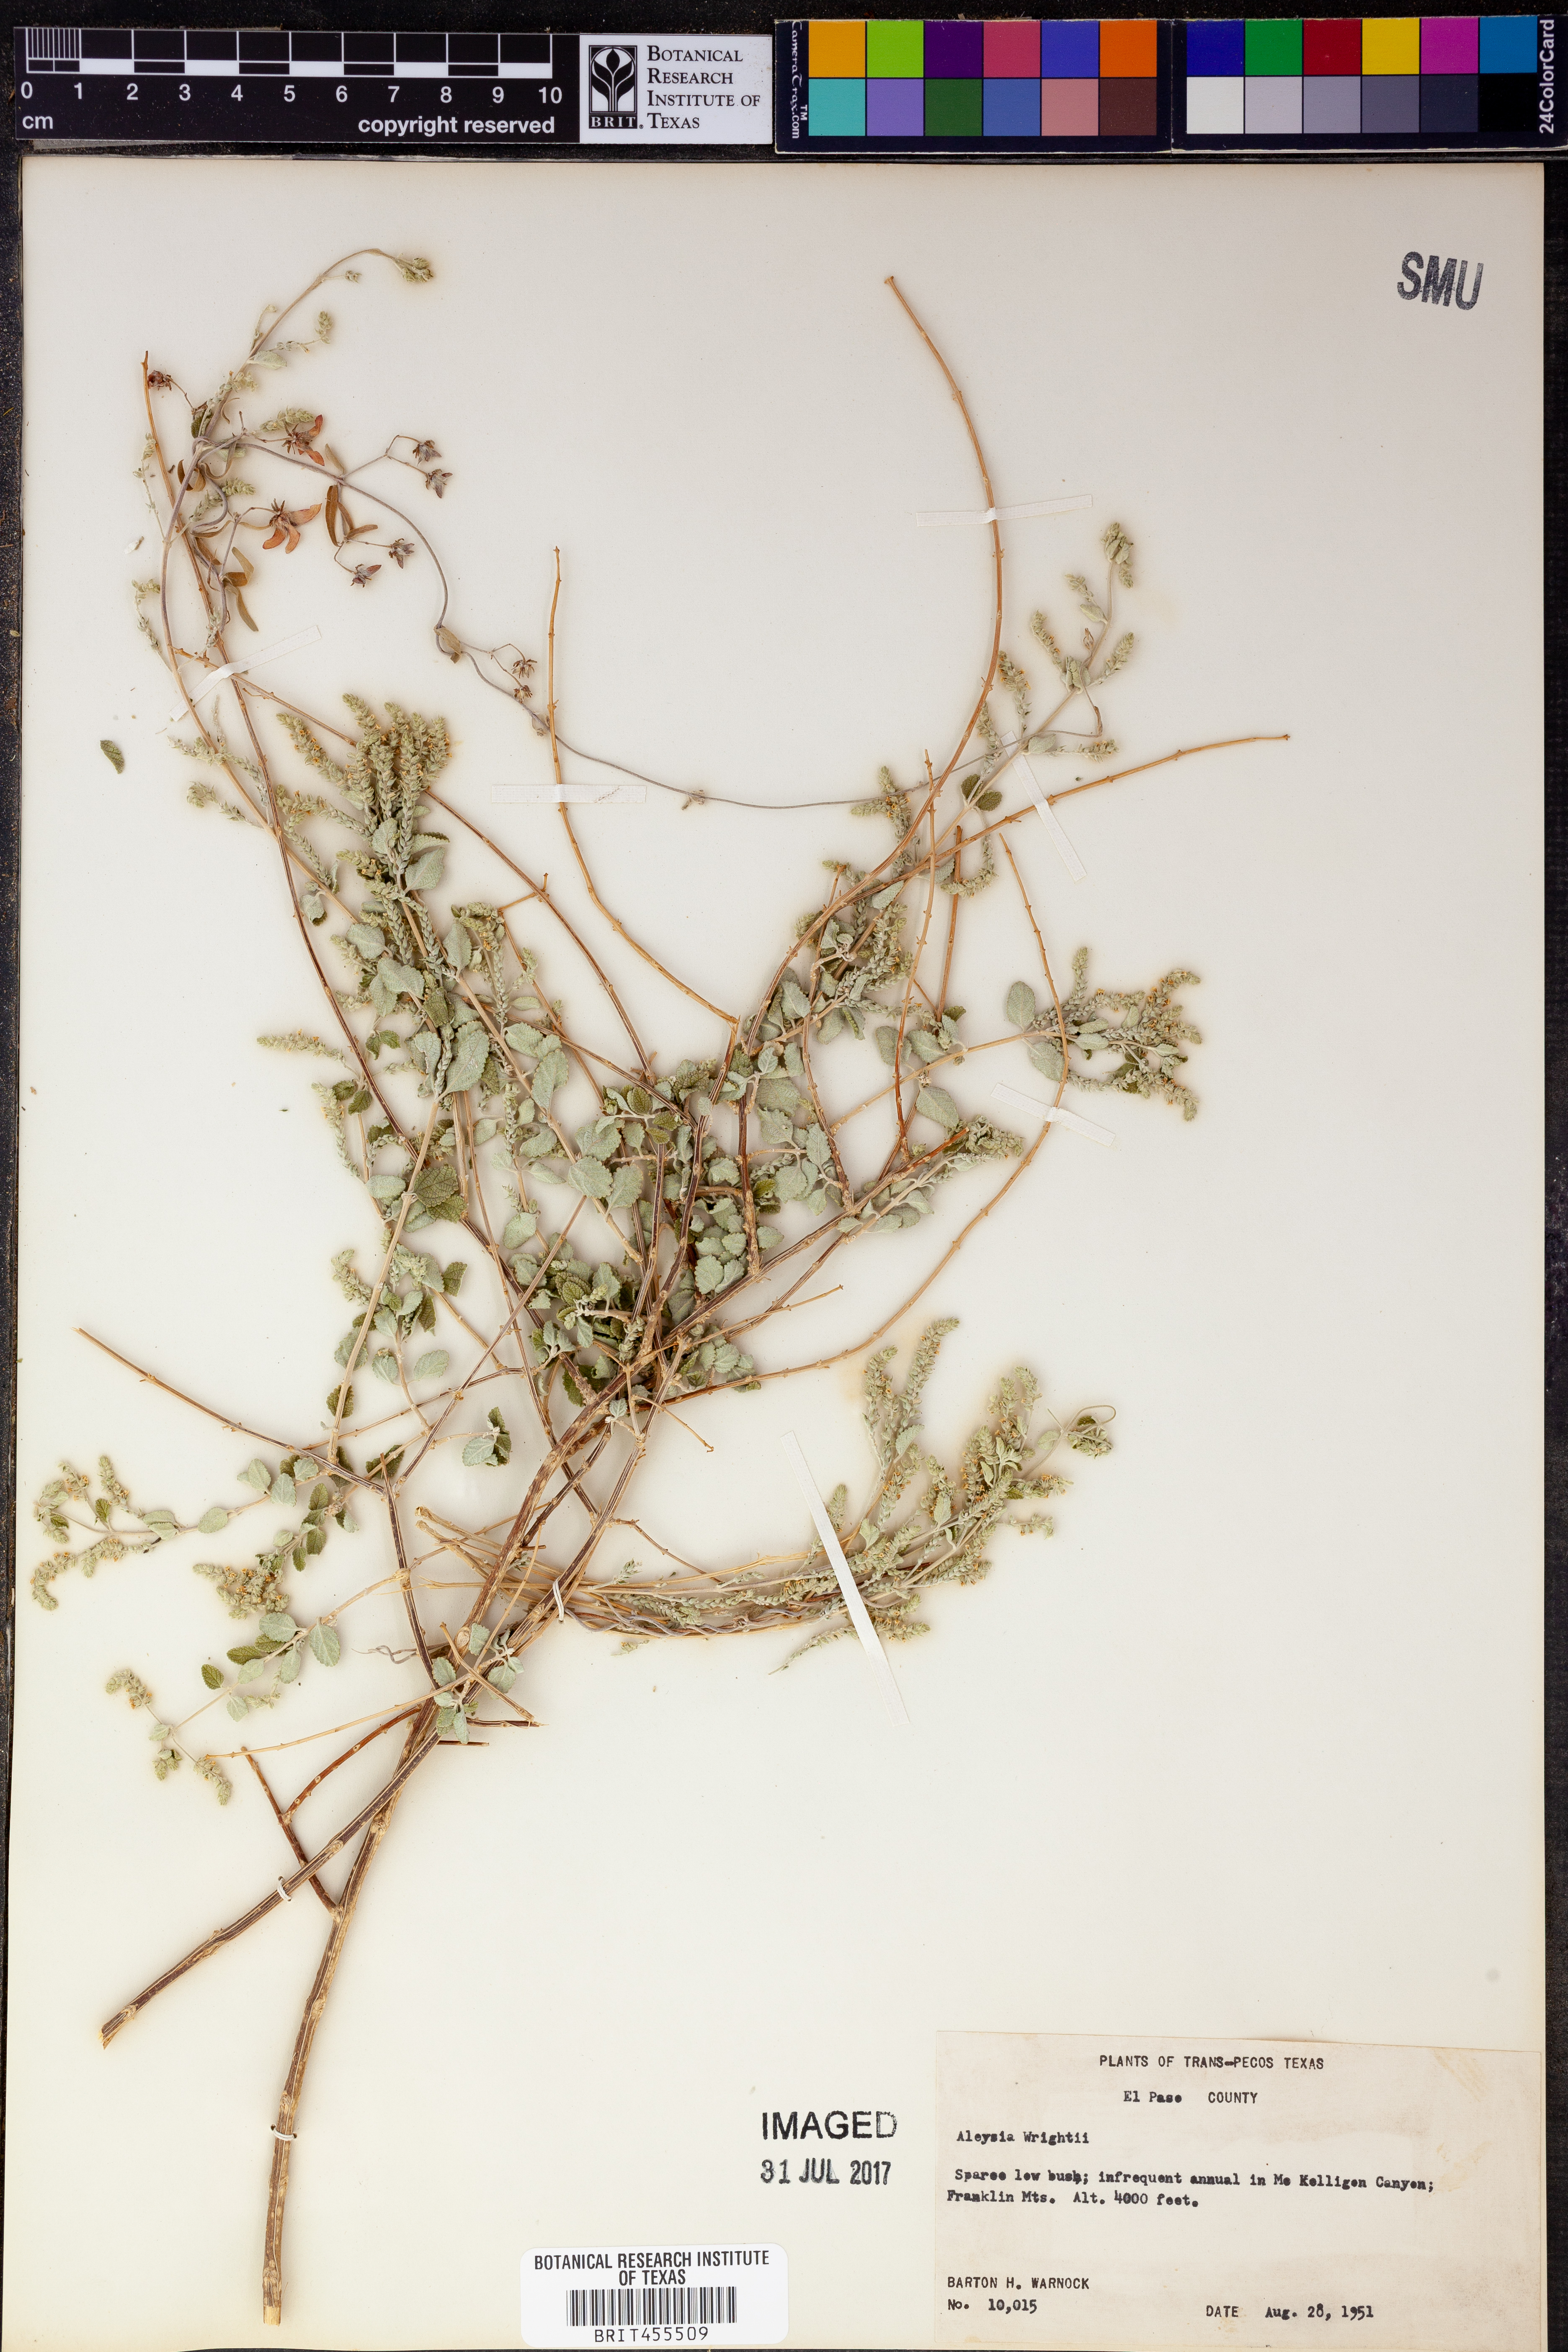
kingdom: Plantae
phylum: Tracheophyta
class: Magnoliopsida
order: Lamiales
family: Verbenaceae
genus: Aloysia
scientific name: Aloysia wrightii
